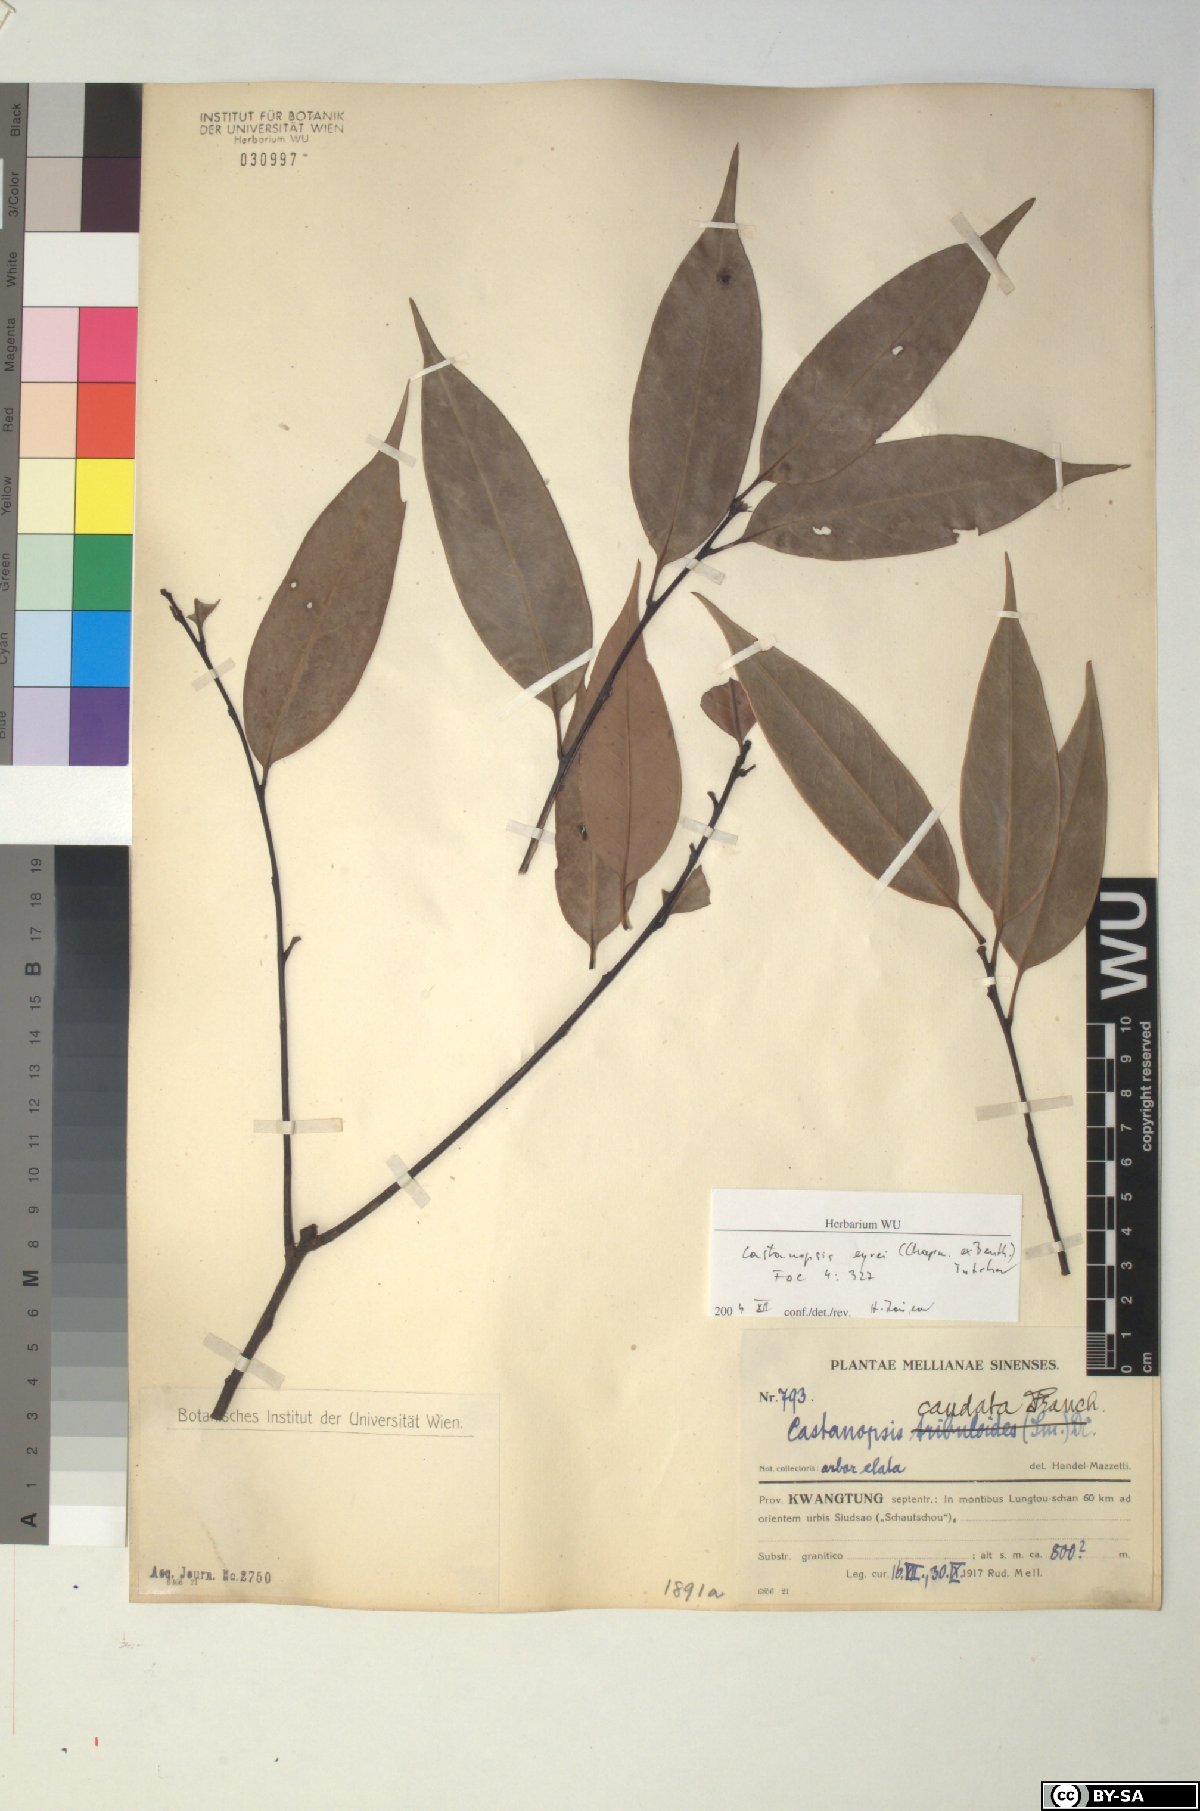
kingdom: Plantae
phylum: Tracheophyta
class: Magnoliopsida
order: Fagales
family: Fagaceae
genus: Castanopsis
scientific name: Castanopsis eyrei
